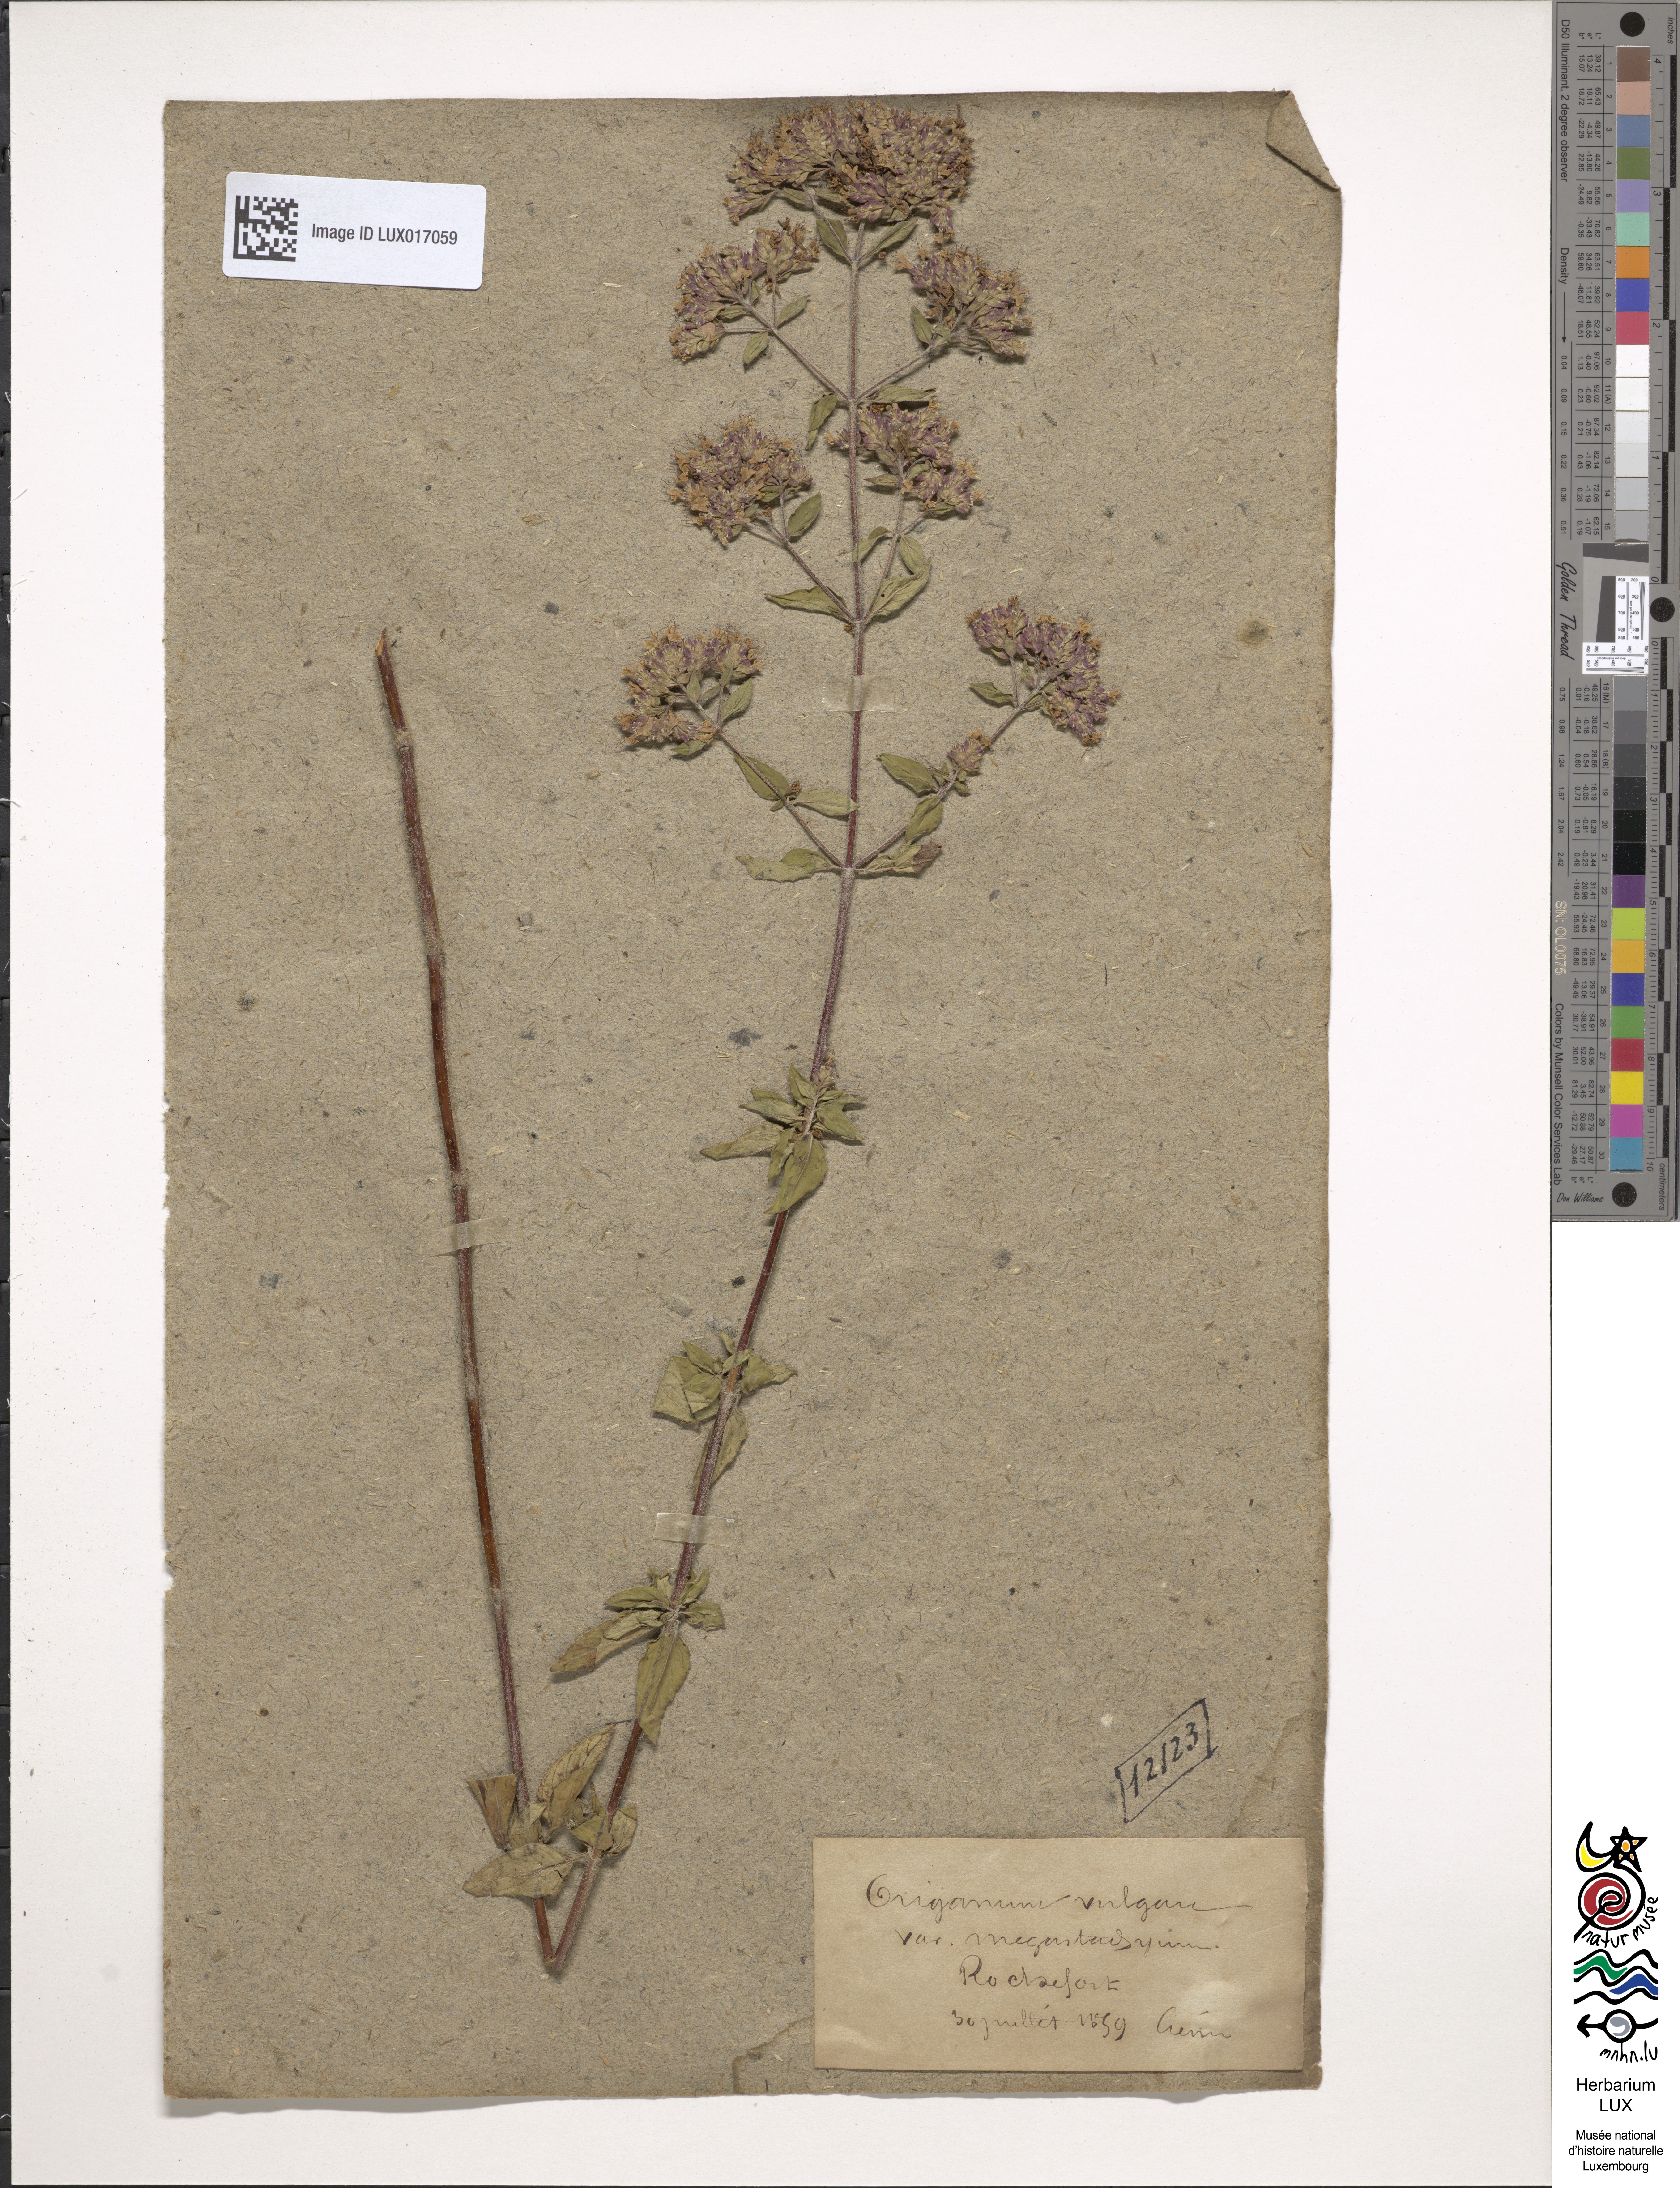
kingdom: Plantae
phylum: Tracheophyta
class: Magnoliopsida
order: Lamiales
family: Lamiaceae
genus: Origanum
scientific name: Origanum vulgare
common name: Wild marjoram
